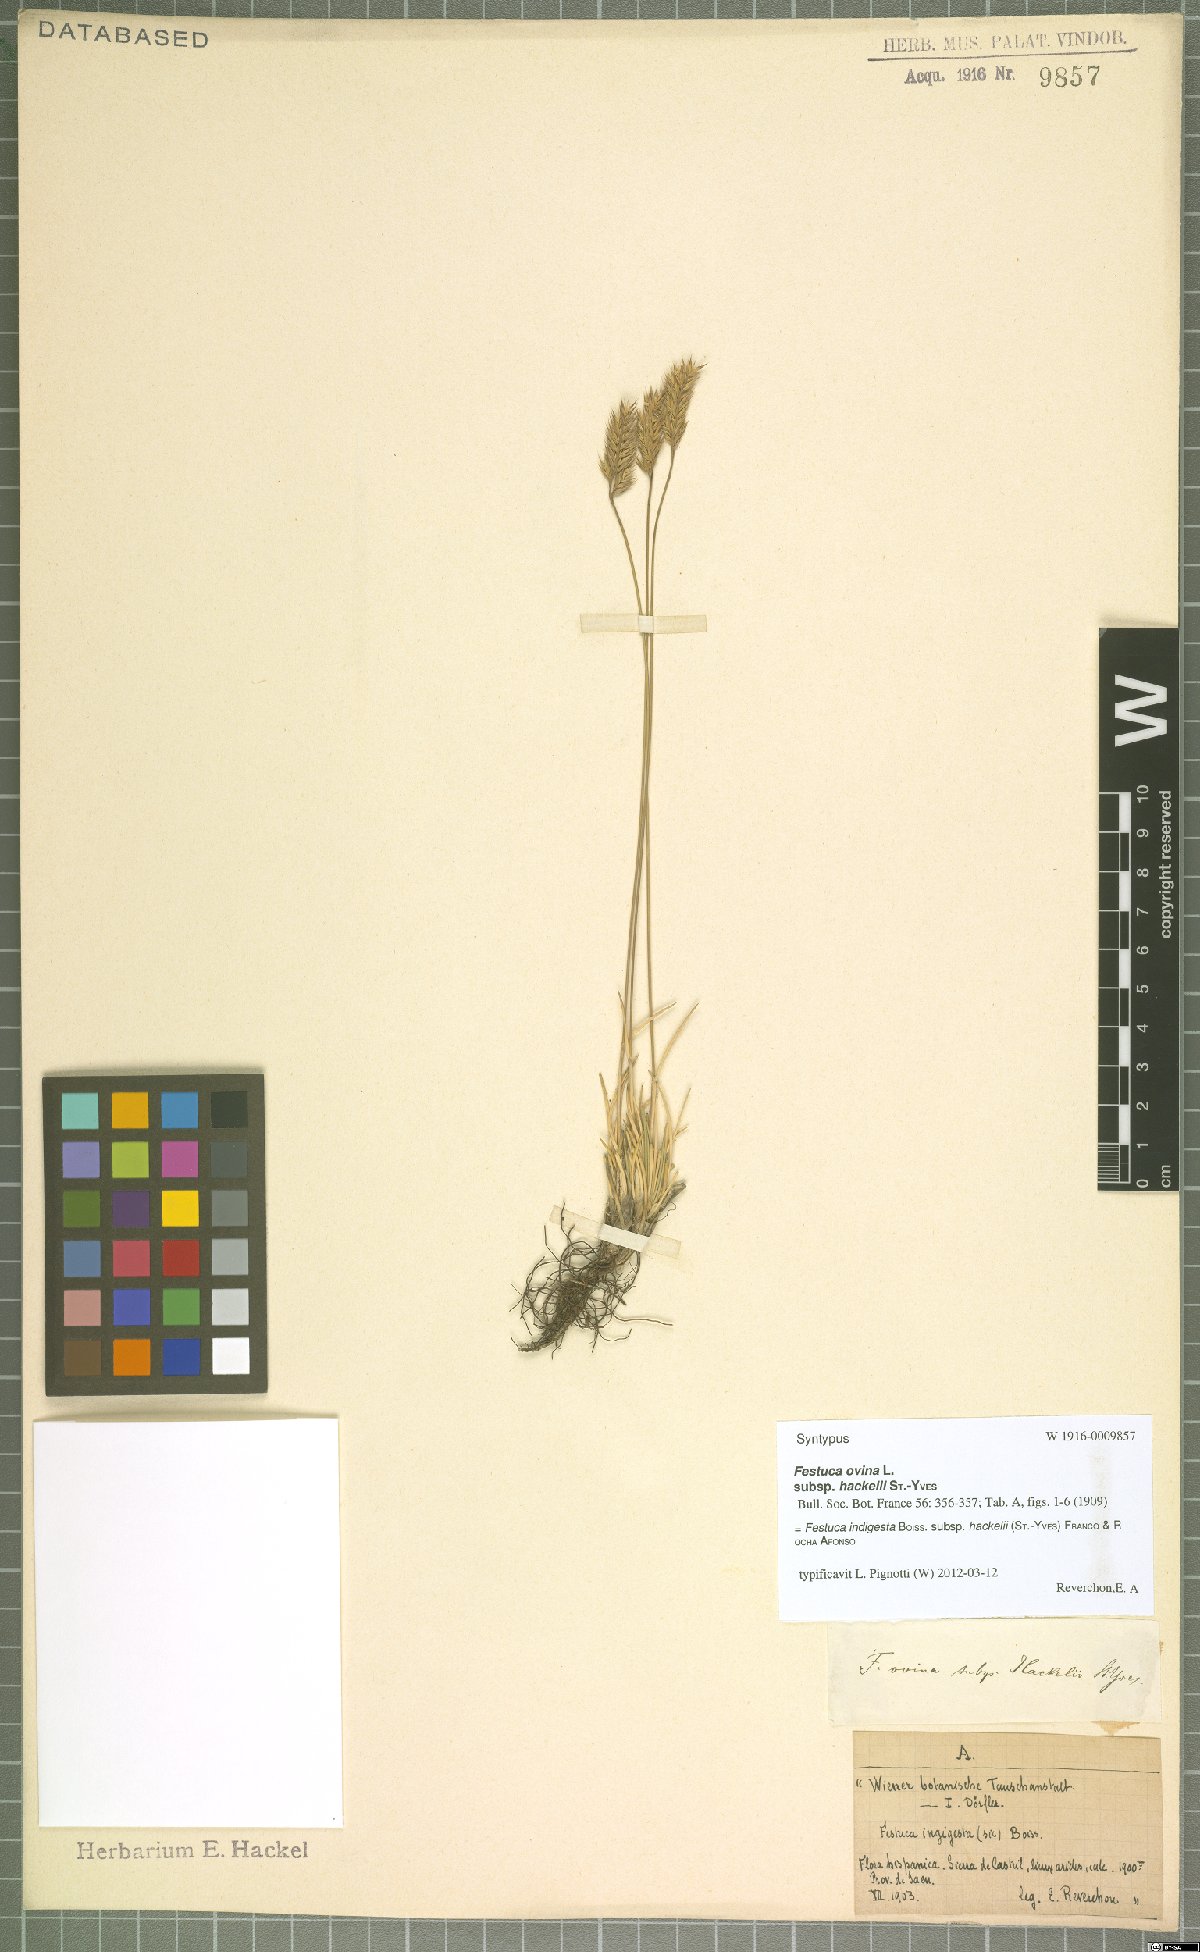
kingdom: Plantae
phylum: Tracheophyta
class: Liliopsida
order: Poales
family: Poaceae
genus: Festuca
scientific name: Festuca indigesta
